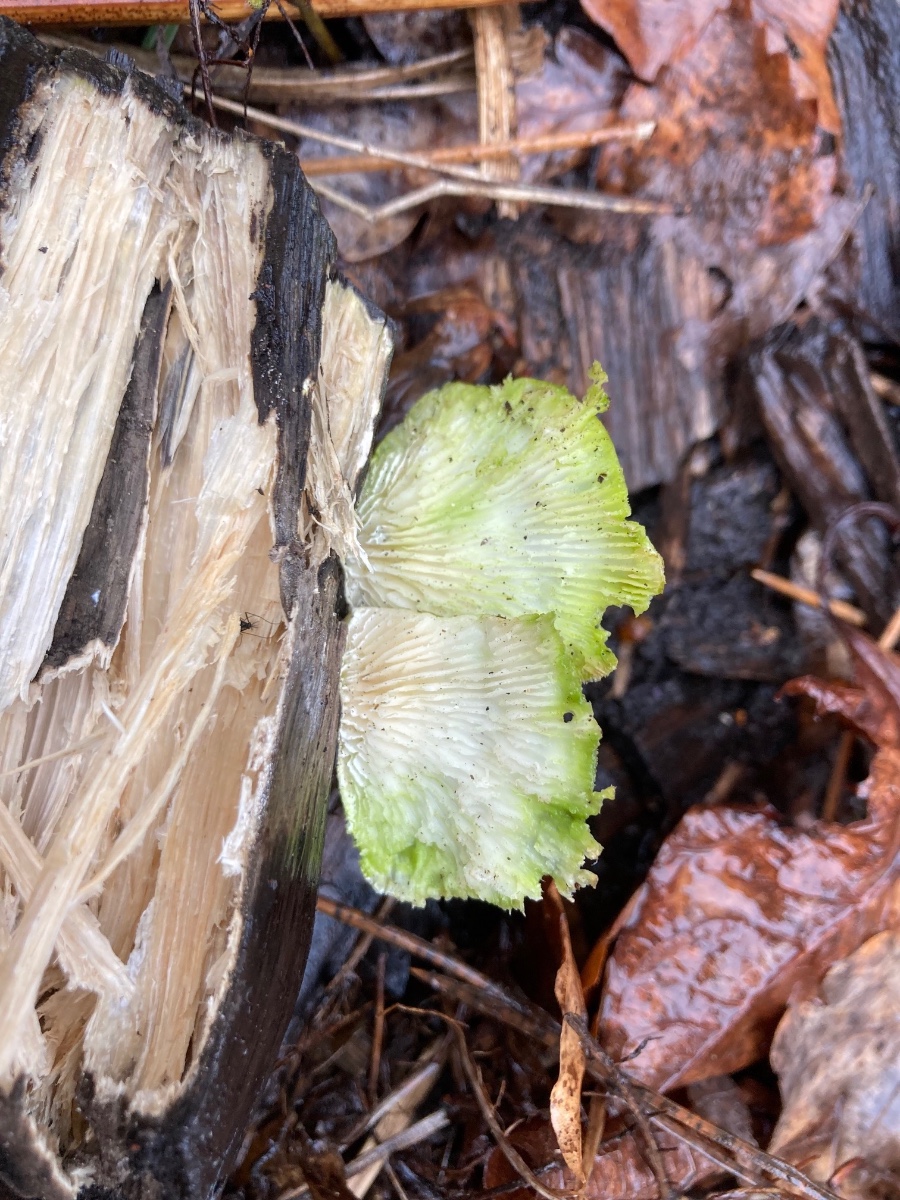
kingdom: Fungi
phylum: Basidiomycota
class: Agaricomycetes
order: Polyporales
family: Polyporaceae
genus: Lenzites
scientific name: Lenzites betulinus
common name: birke-læderporesvamp
